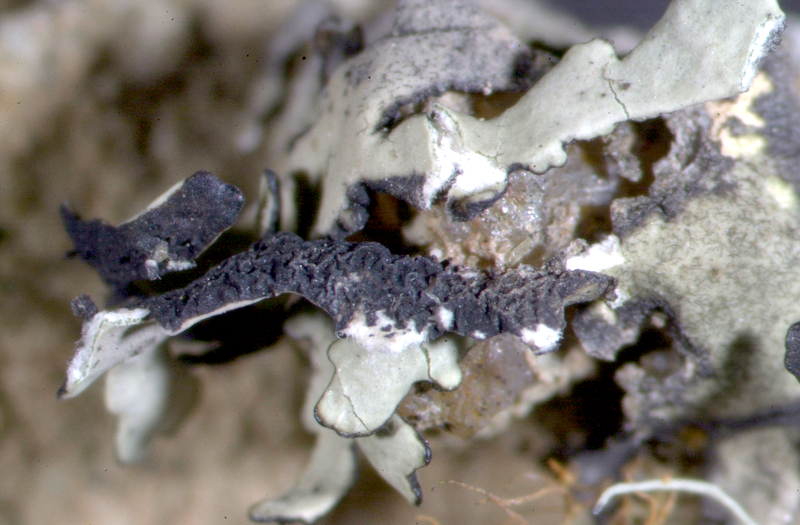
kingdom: Fungi
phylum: Ascomycota
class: Lecanoromycetes
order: Teloschistales
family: Teloschistaceae
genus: Caloplaca
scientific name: Caloplaca
